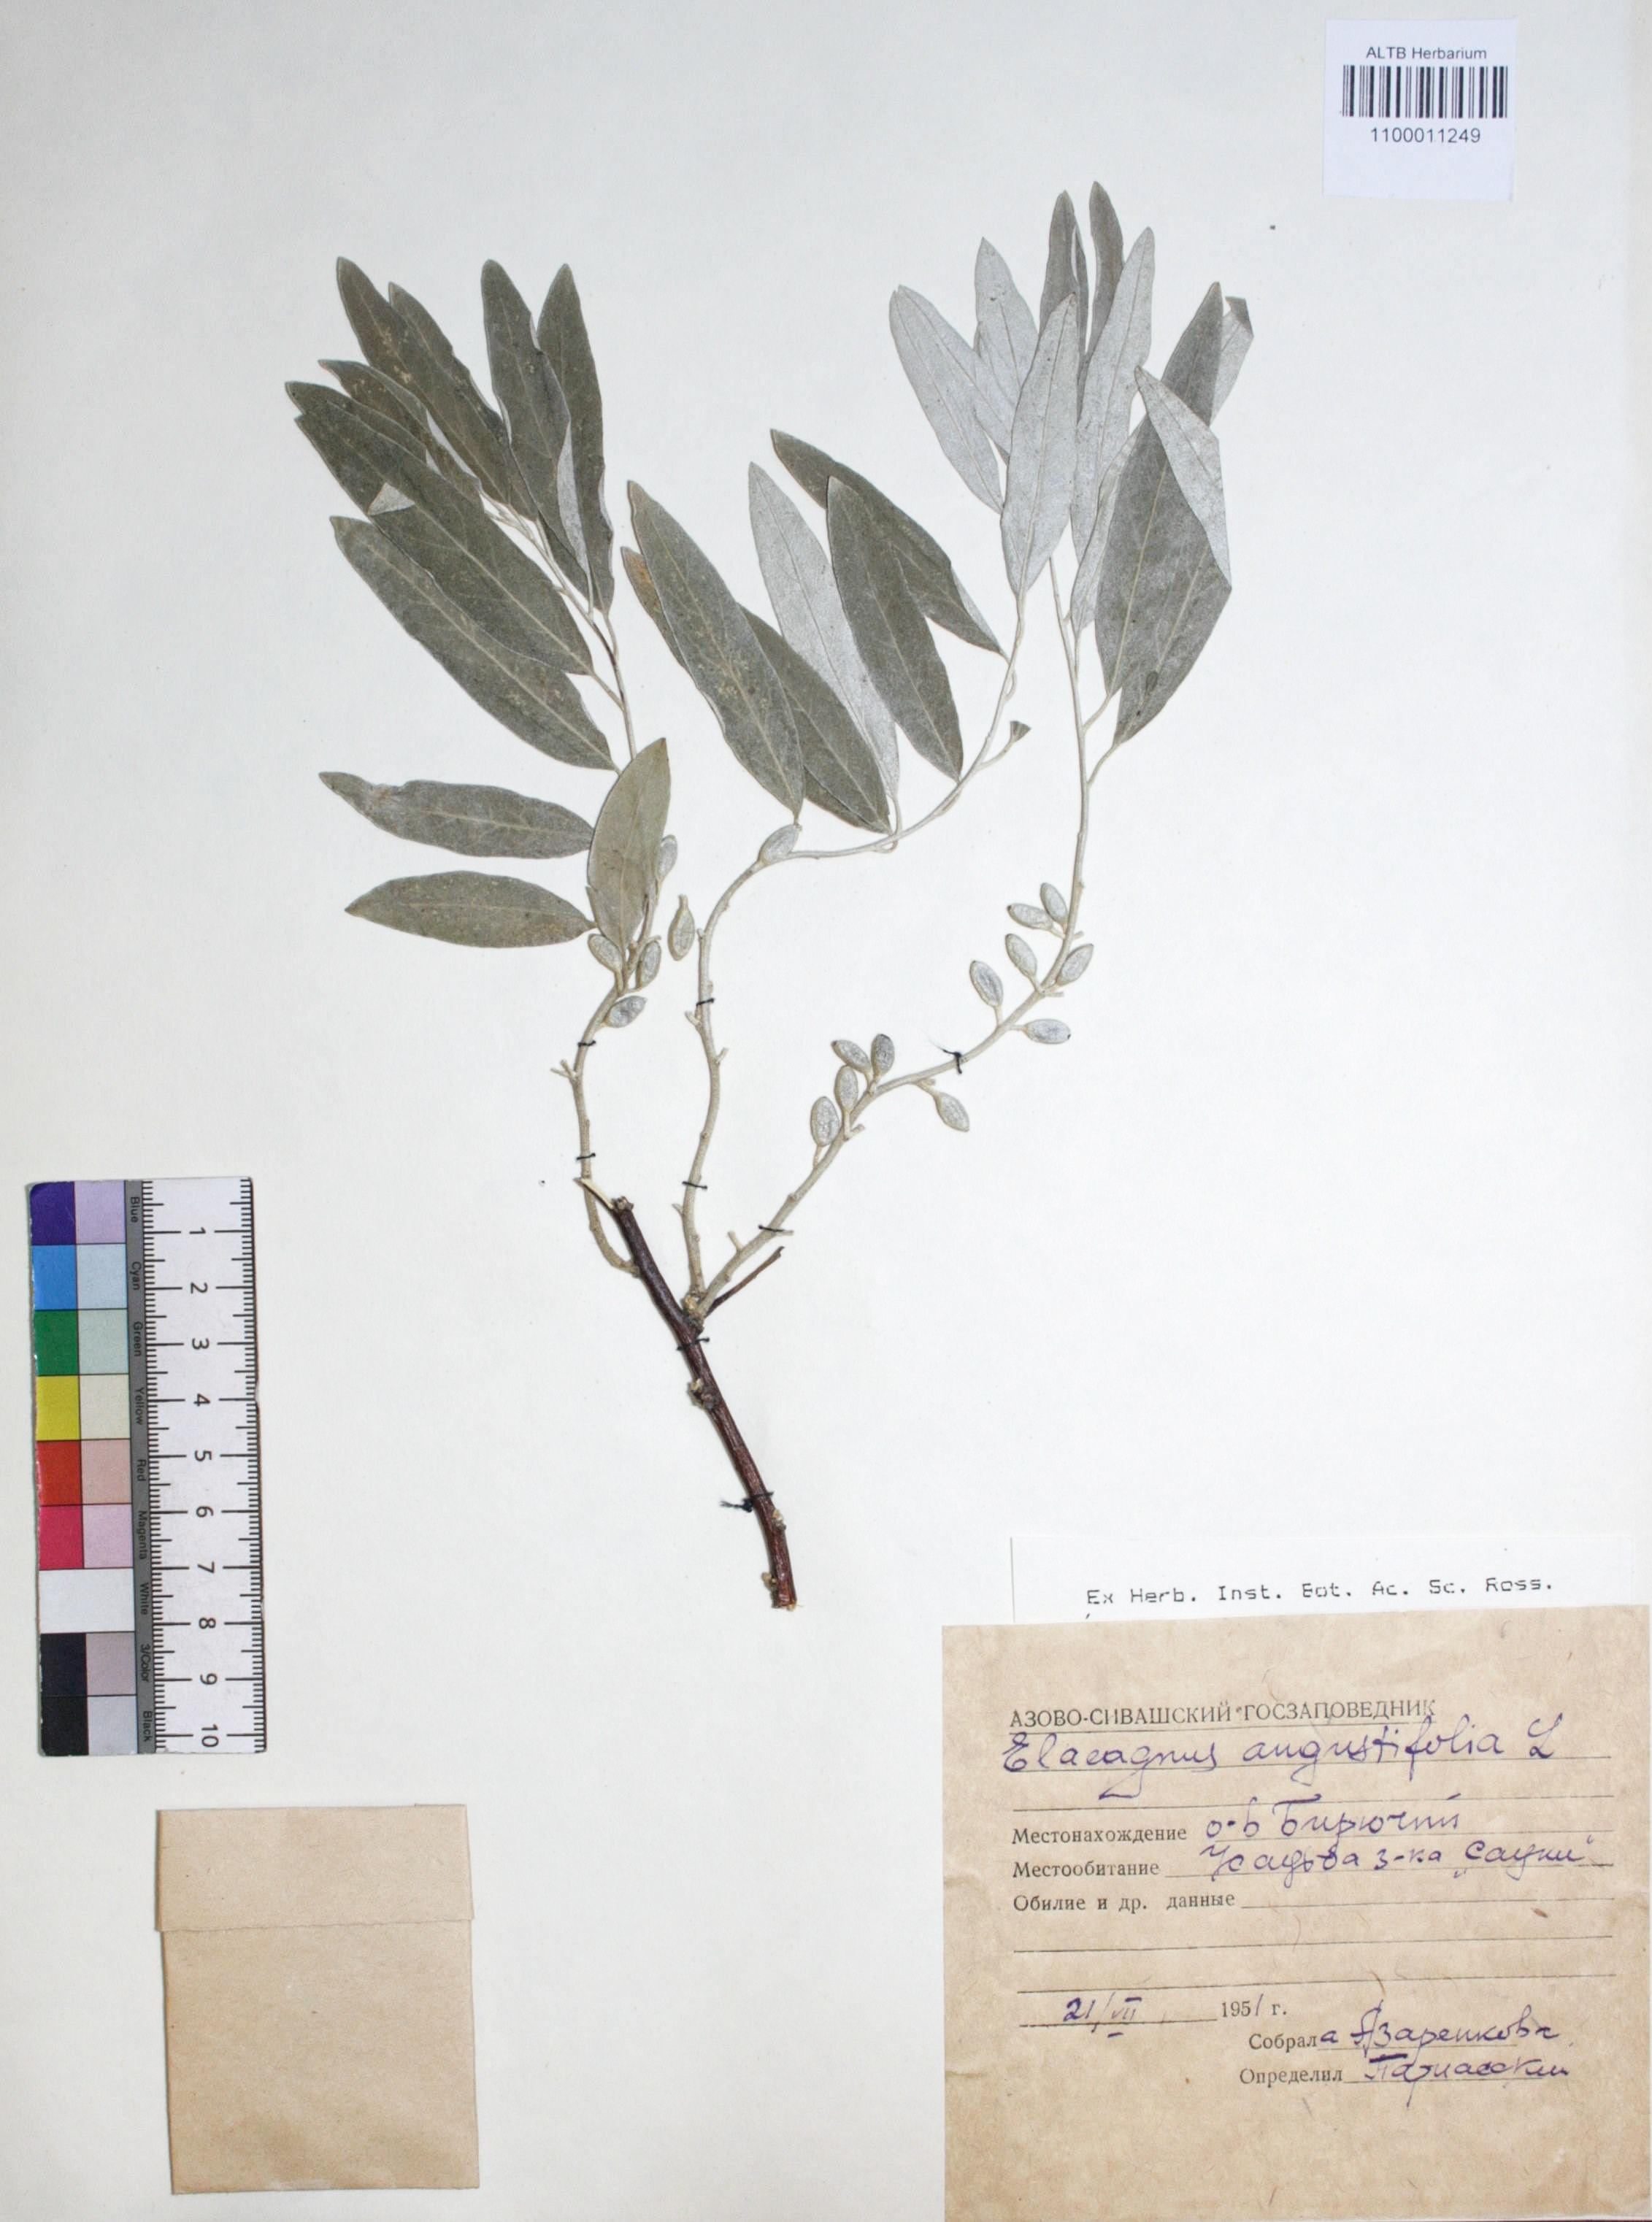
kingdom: Plantae
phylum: Tracheophyta
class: Magnoliopsida
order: Rosales
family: Elaeagnaceae
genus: Elaeagnus
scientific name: Elaeagnus angustifolia
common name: Russian olive
